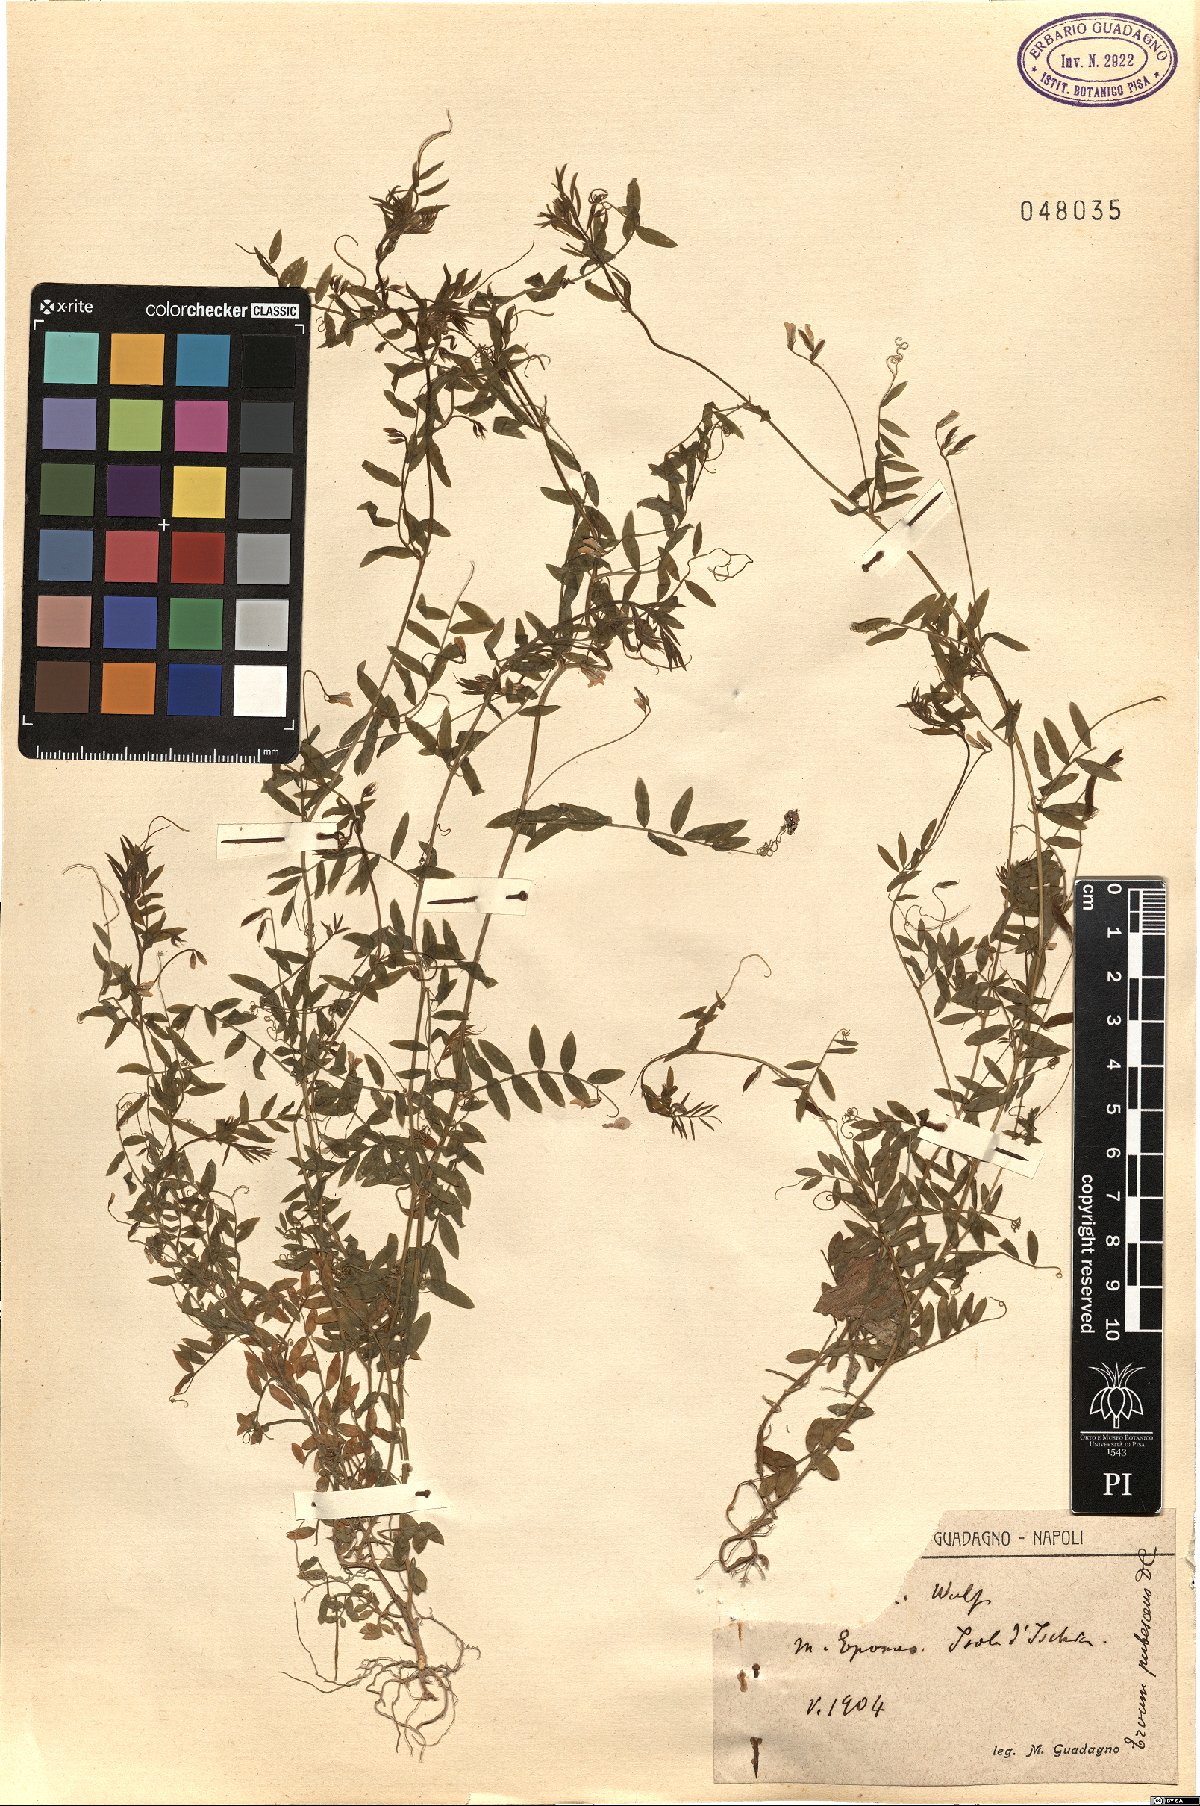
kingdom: Plantae
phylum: Tracheophyta
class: Magnoliopsida
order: Fabales
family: Fabaceae
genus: Vicia
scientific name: Vicia pubescens
